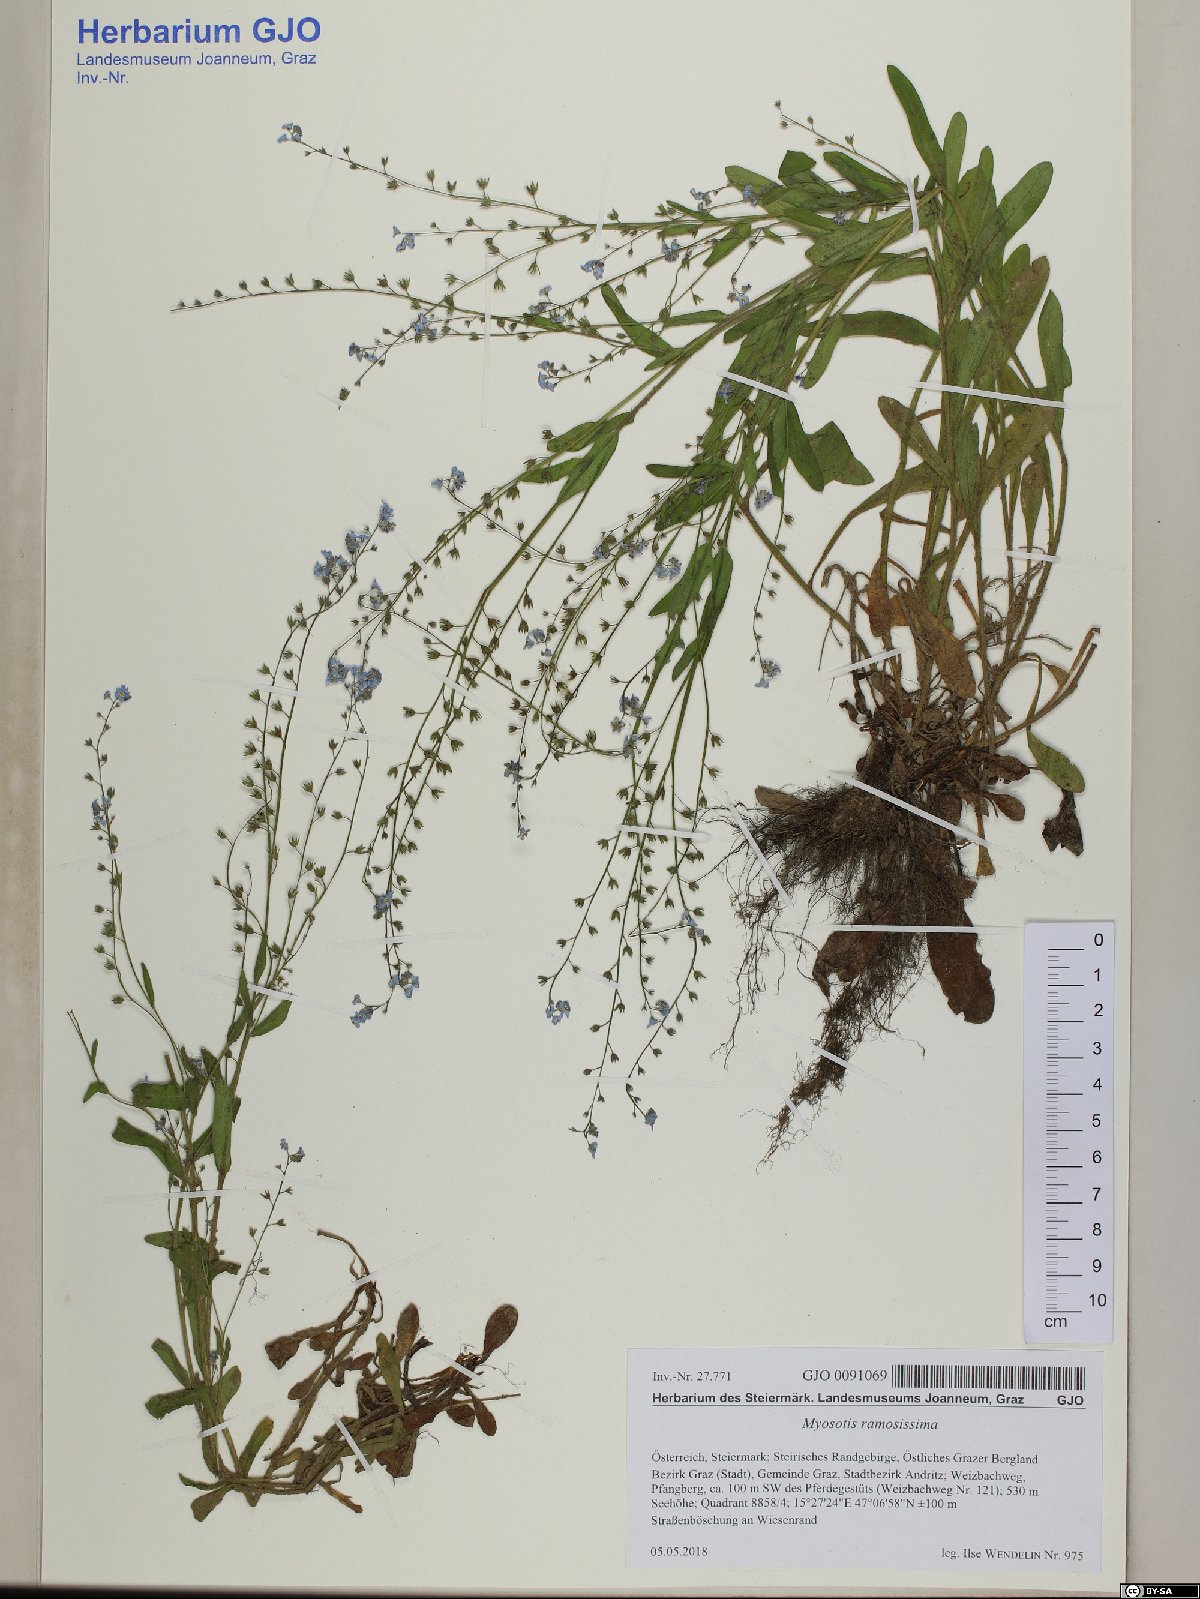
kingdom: Plantae
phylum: Tracheophyta
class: Magnoliopsida
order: Boraginales
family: Boraginaceae
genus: Myosotis
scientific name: Myosotis ramosissima
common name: Early forget-me-not
